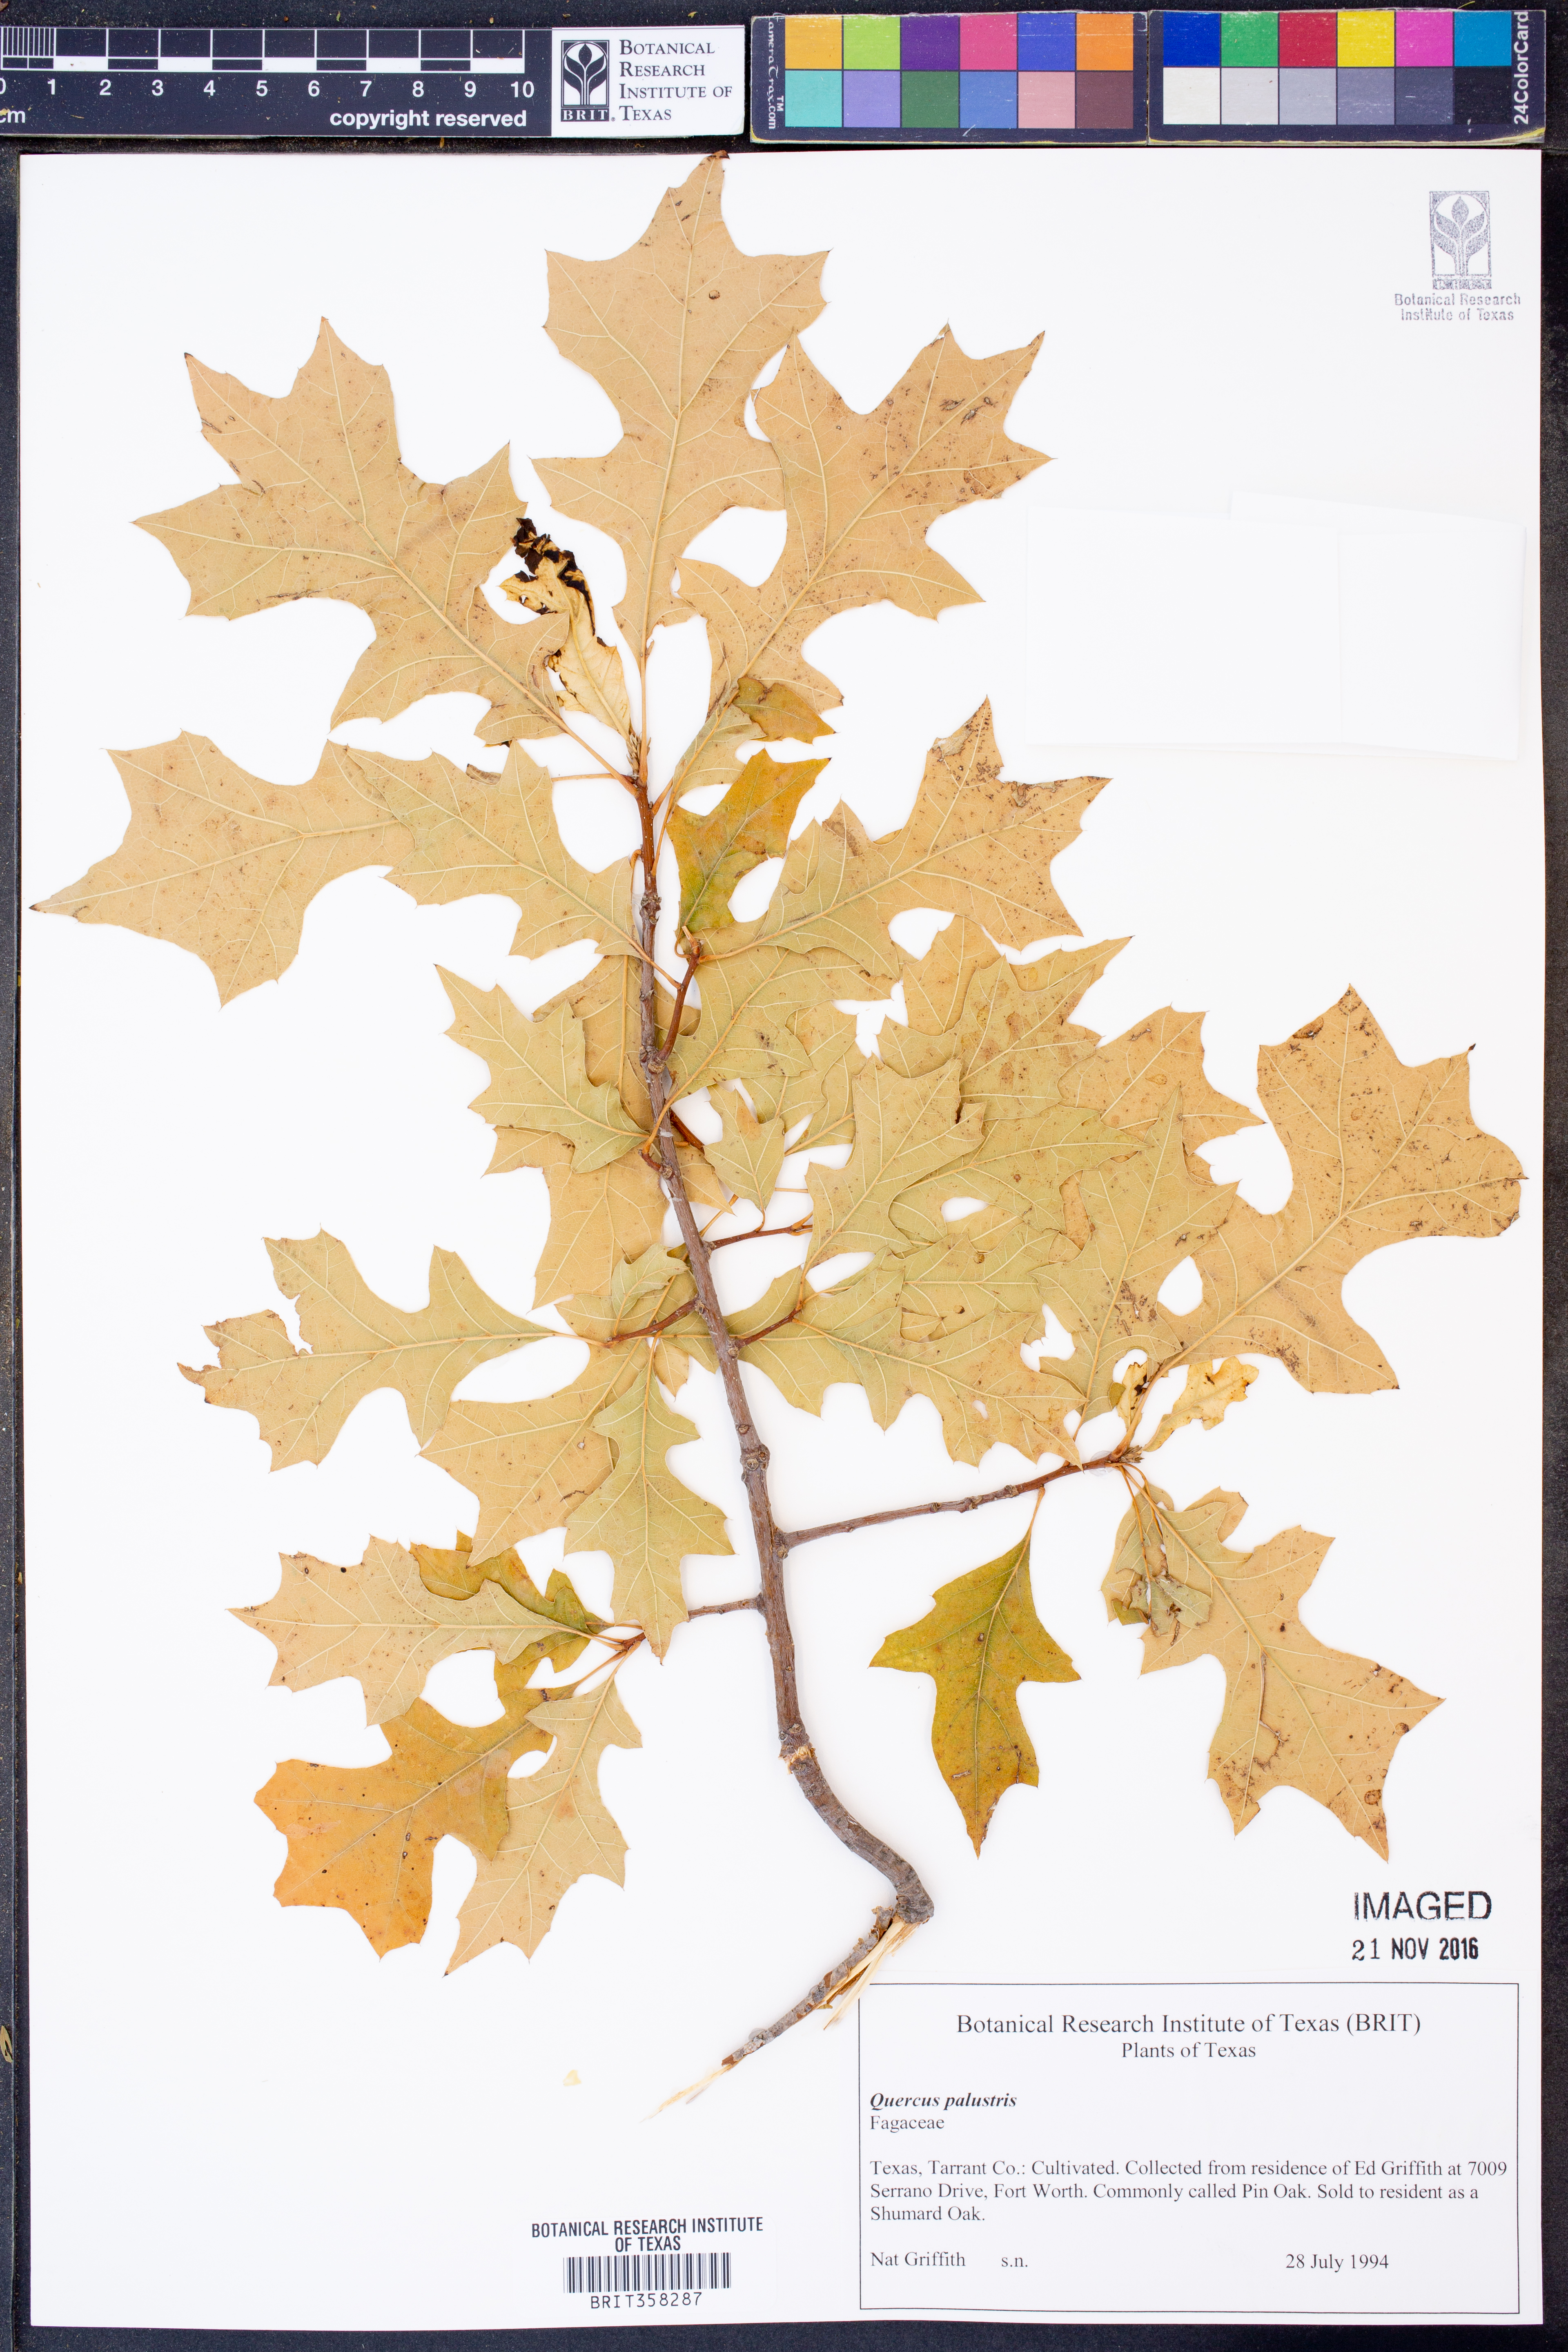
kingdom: Plantae
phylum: Tracheophyta
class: Magnoliopsida
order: Fagales
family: Fagaceae
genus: Quercus
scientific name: Quercus palustris
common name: Pin oak
